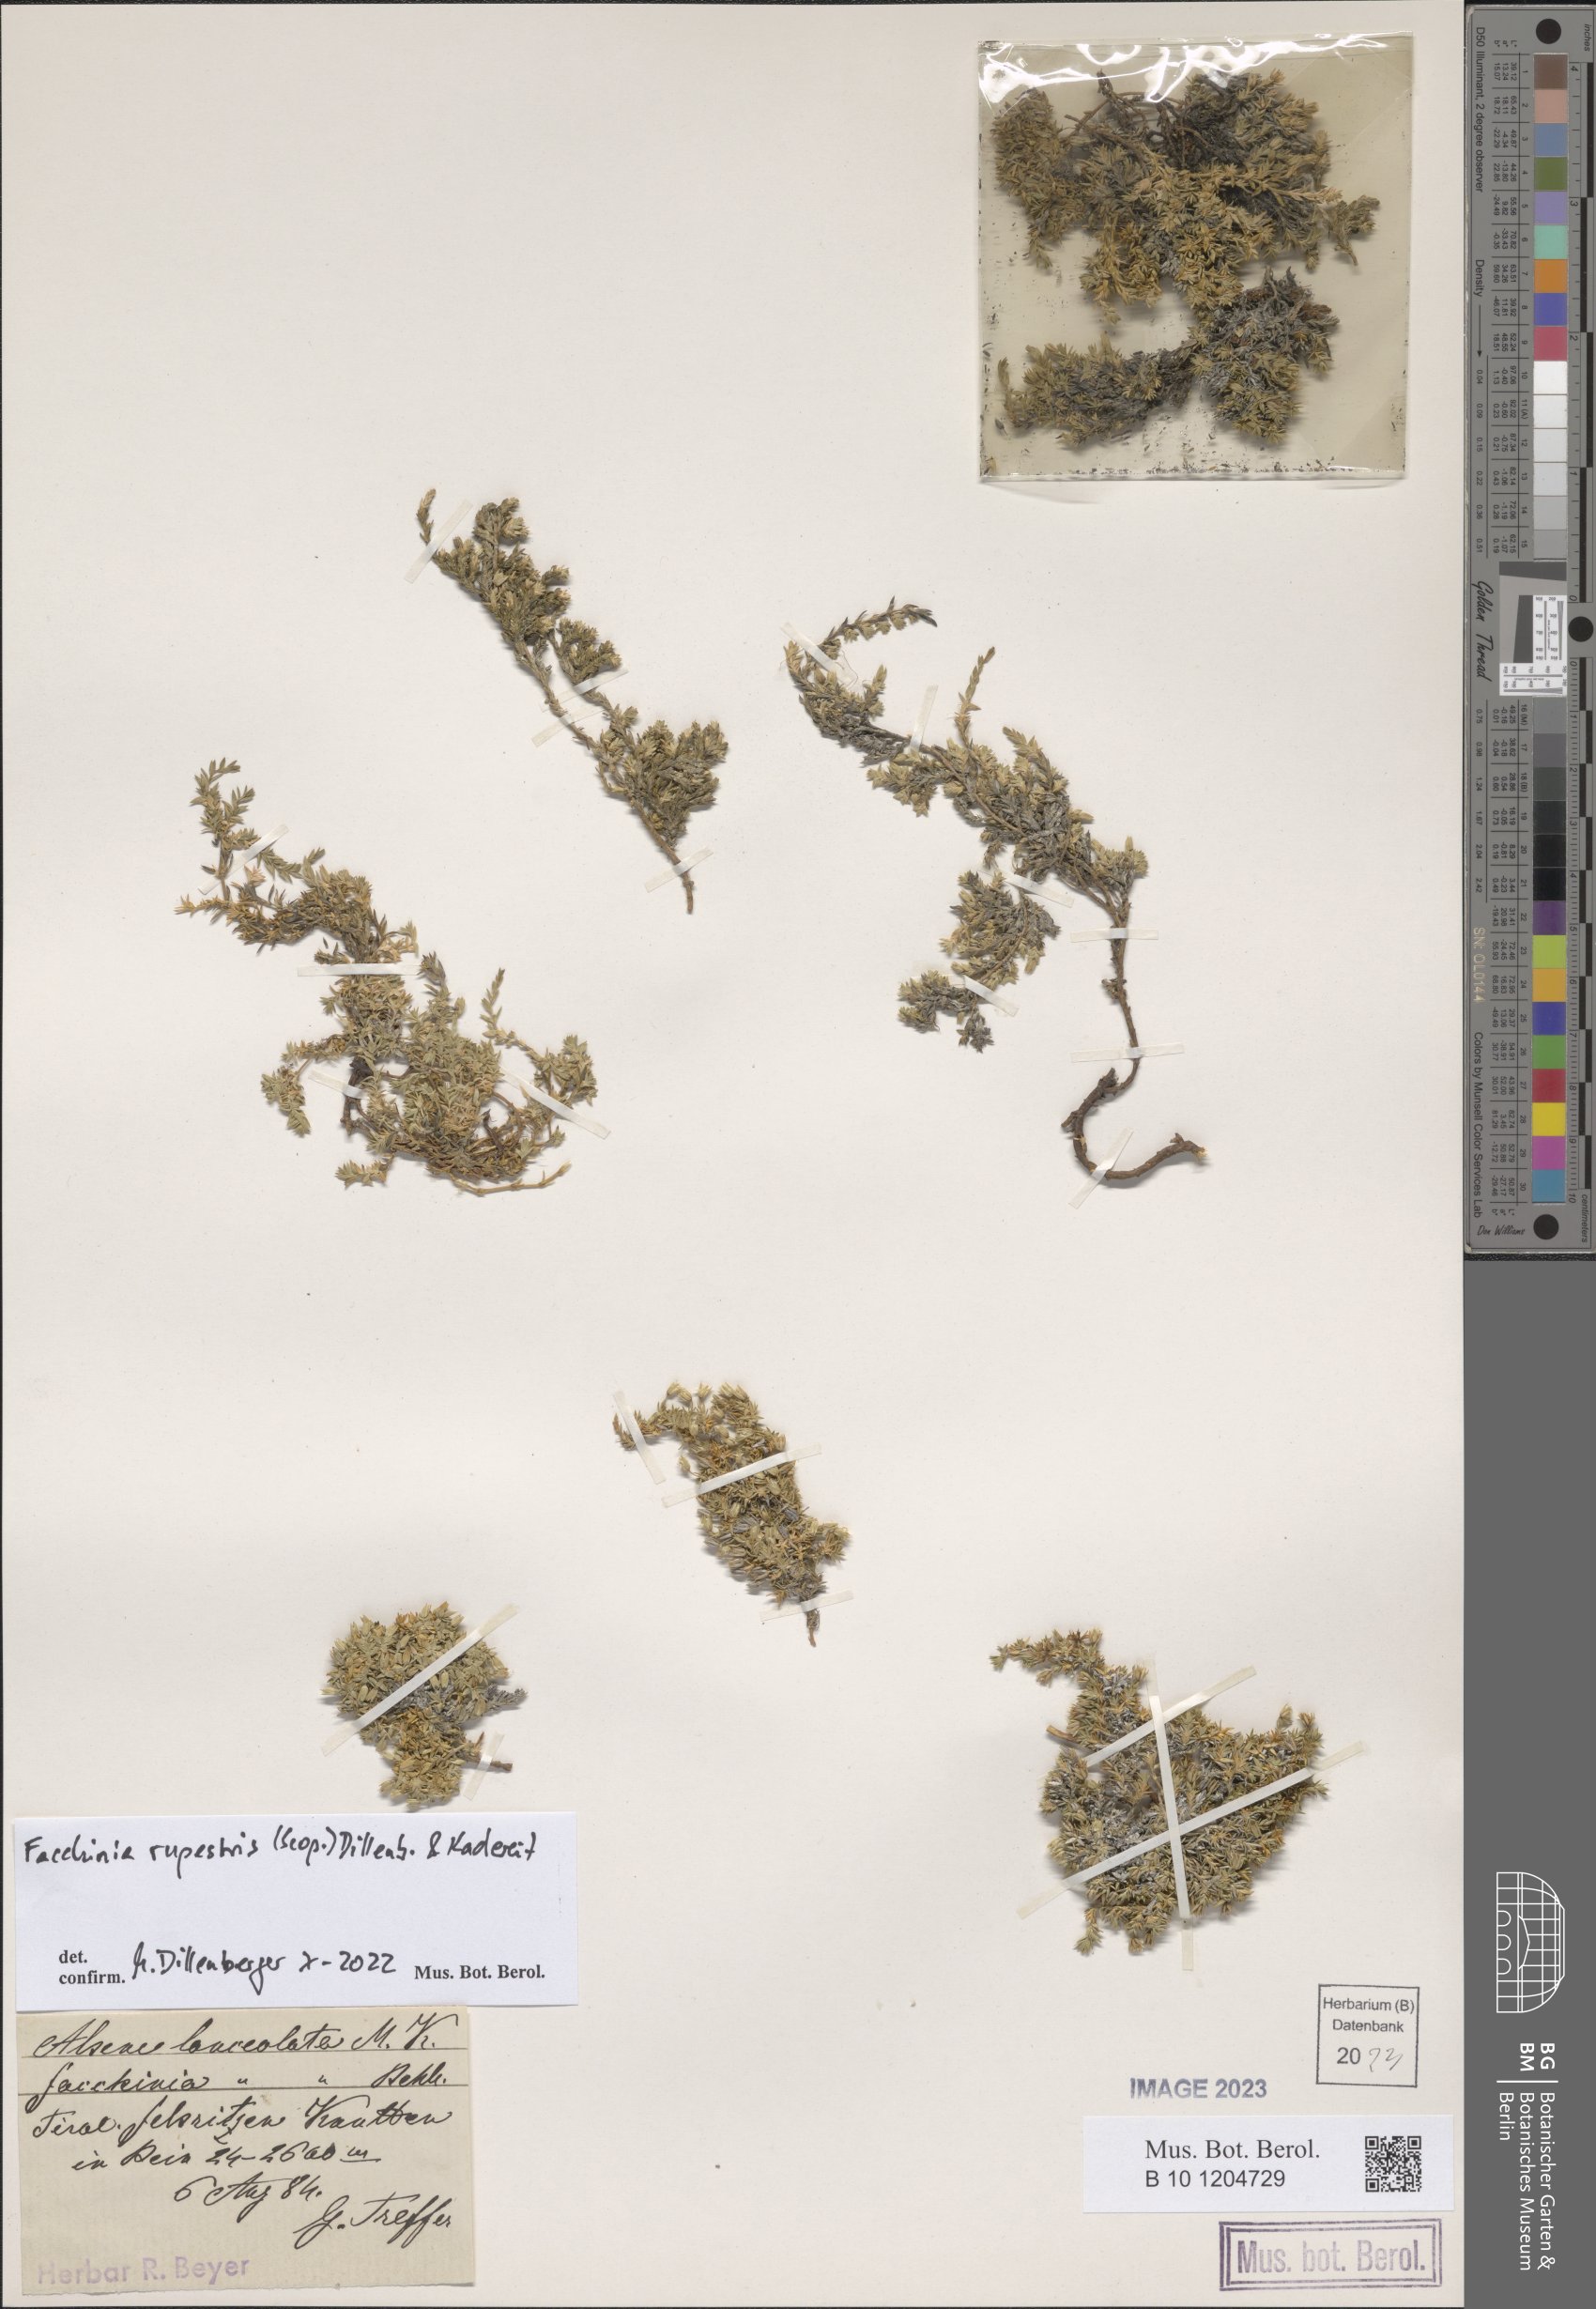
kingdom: Plantae
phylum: Tracheophyta
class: Magnoliopsida
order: Caryophyllales
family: Caryophyllaceae
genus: Facchinia
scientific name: Facchinia rupestris
